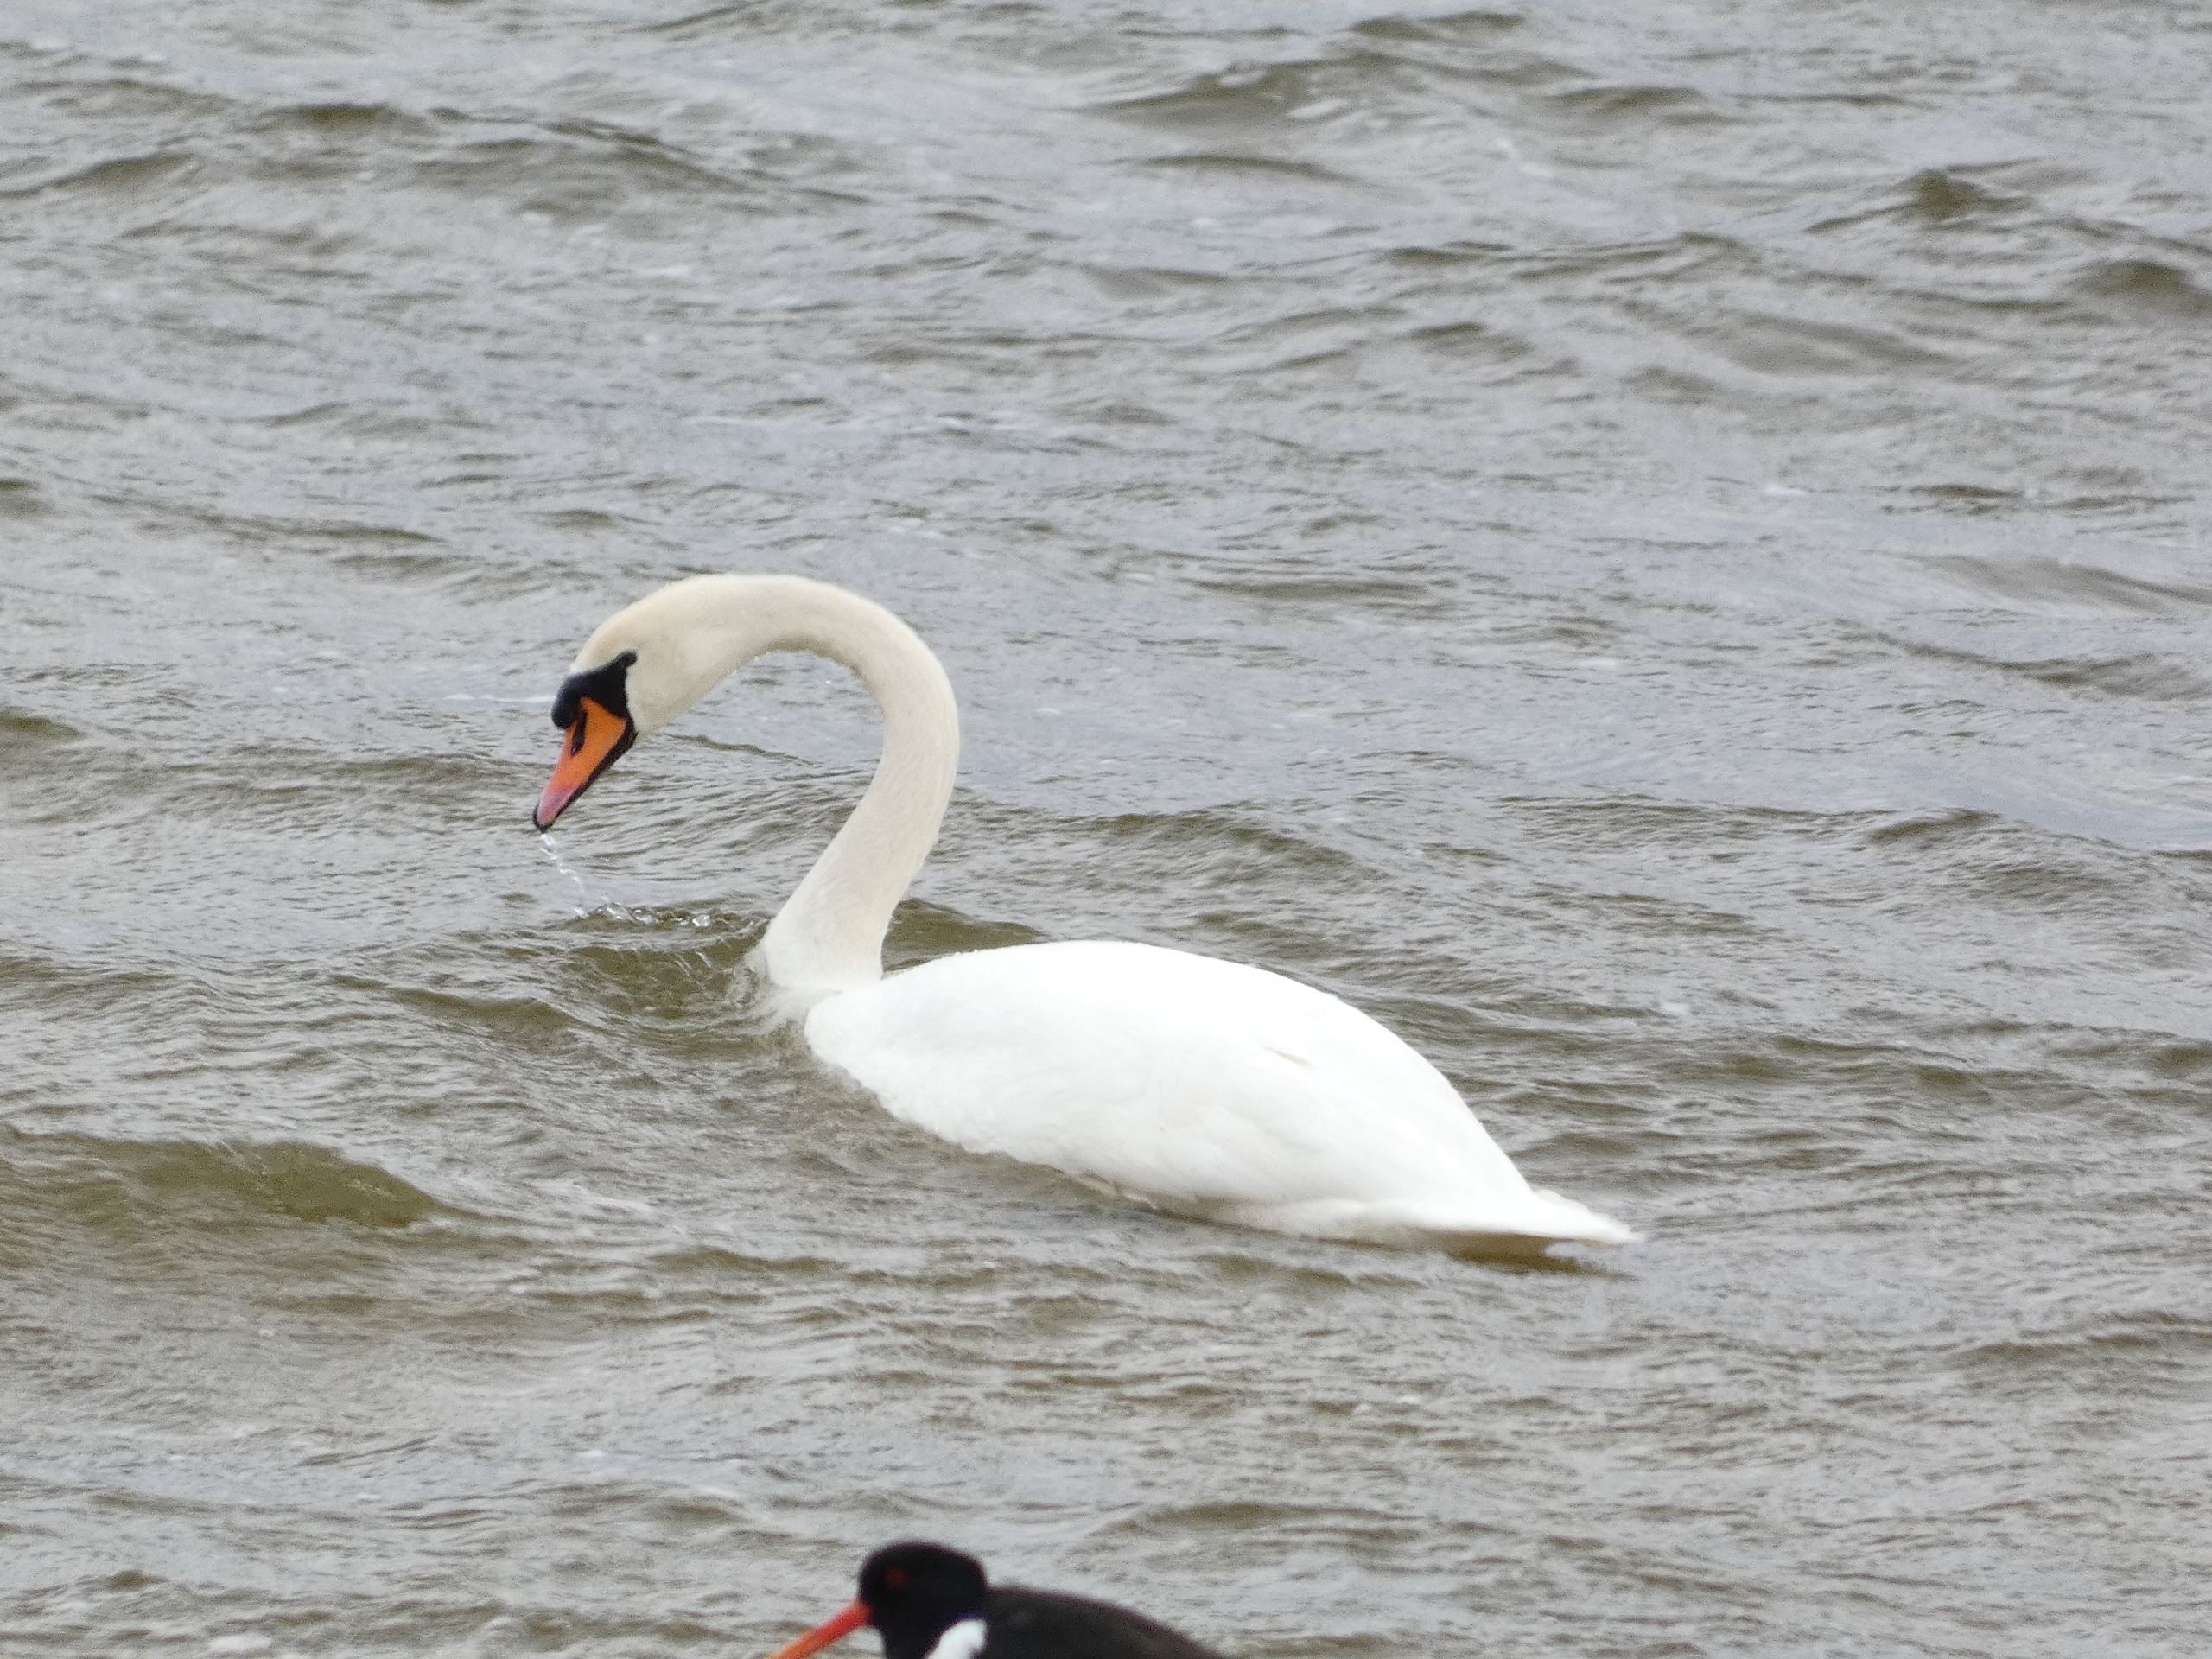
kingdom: Animalia
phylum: Chordata
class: Aves
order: Anseriformes
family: Anatidae
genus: Cygnus
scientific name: Cygnus olor
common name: Knopsvane
